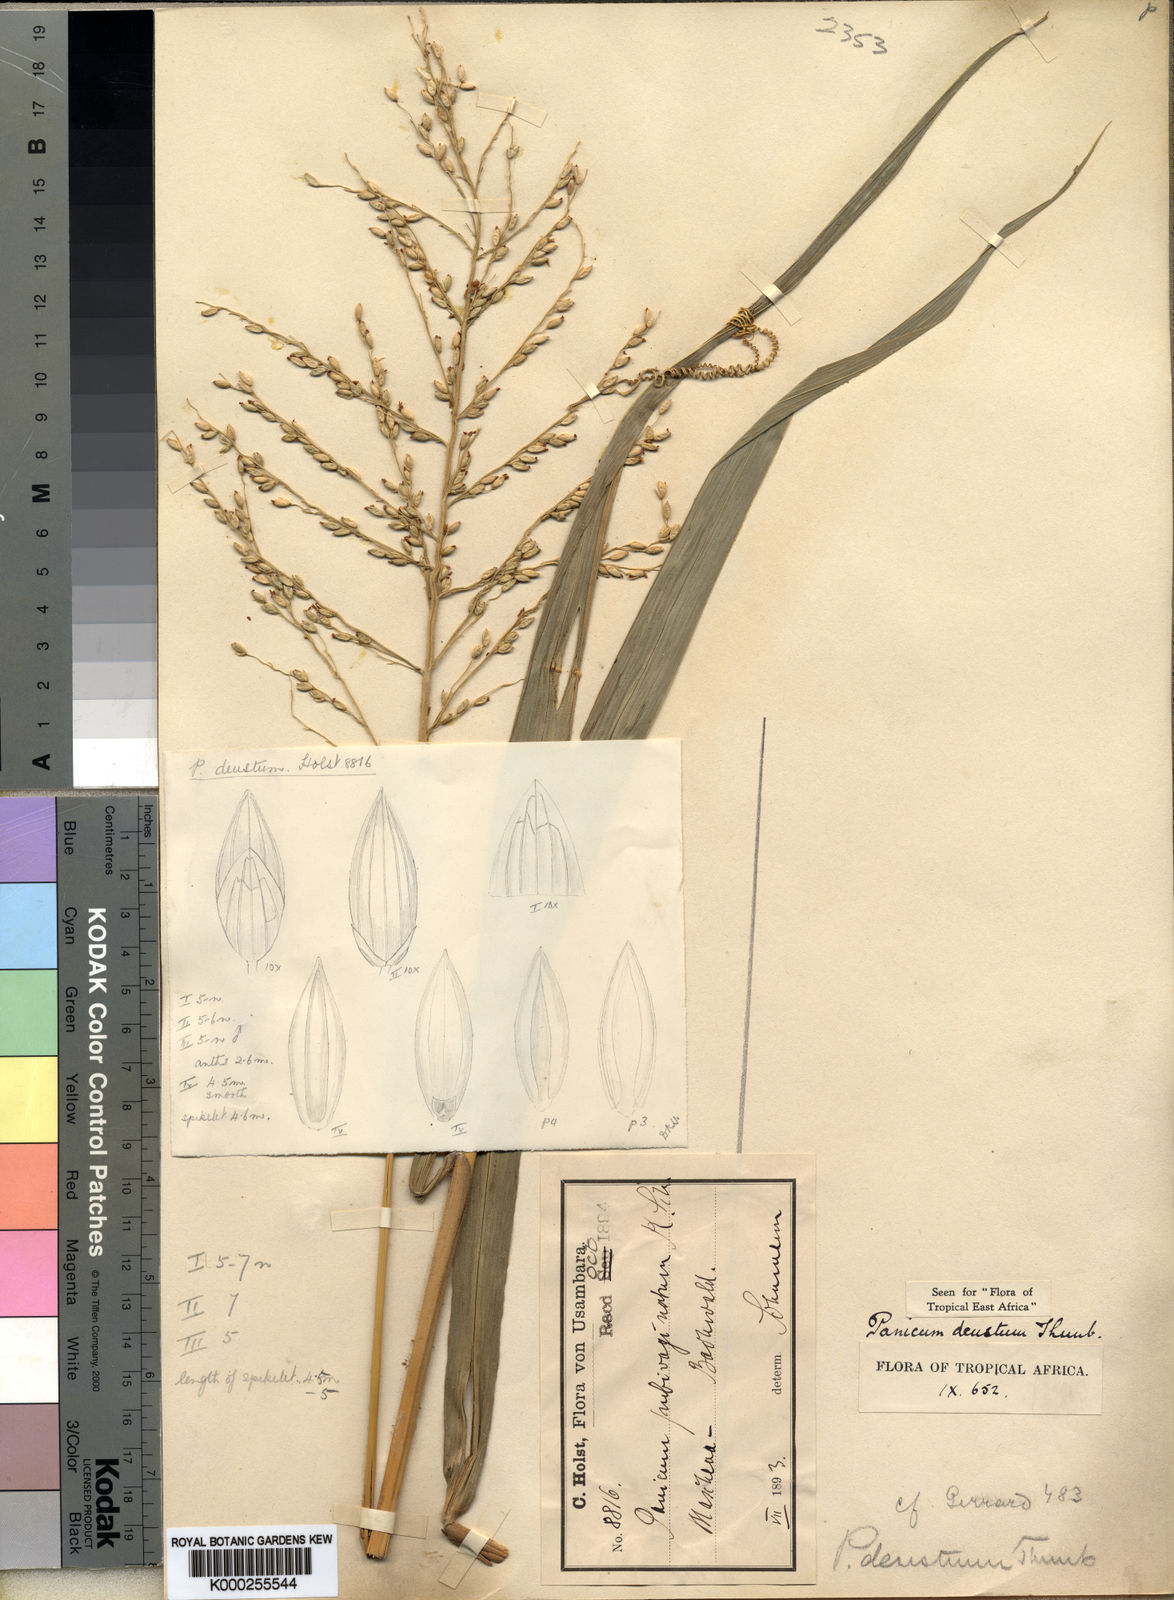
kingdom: Plantae
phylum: Tracheophyta
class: Liliopsida
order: Poales
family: Poaceae
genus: Panicum
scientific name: Panicum deustum
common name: Reed panicum
